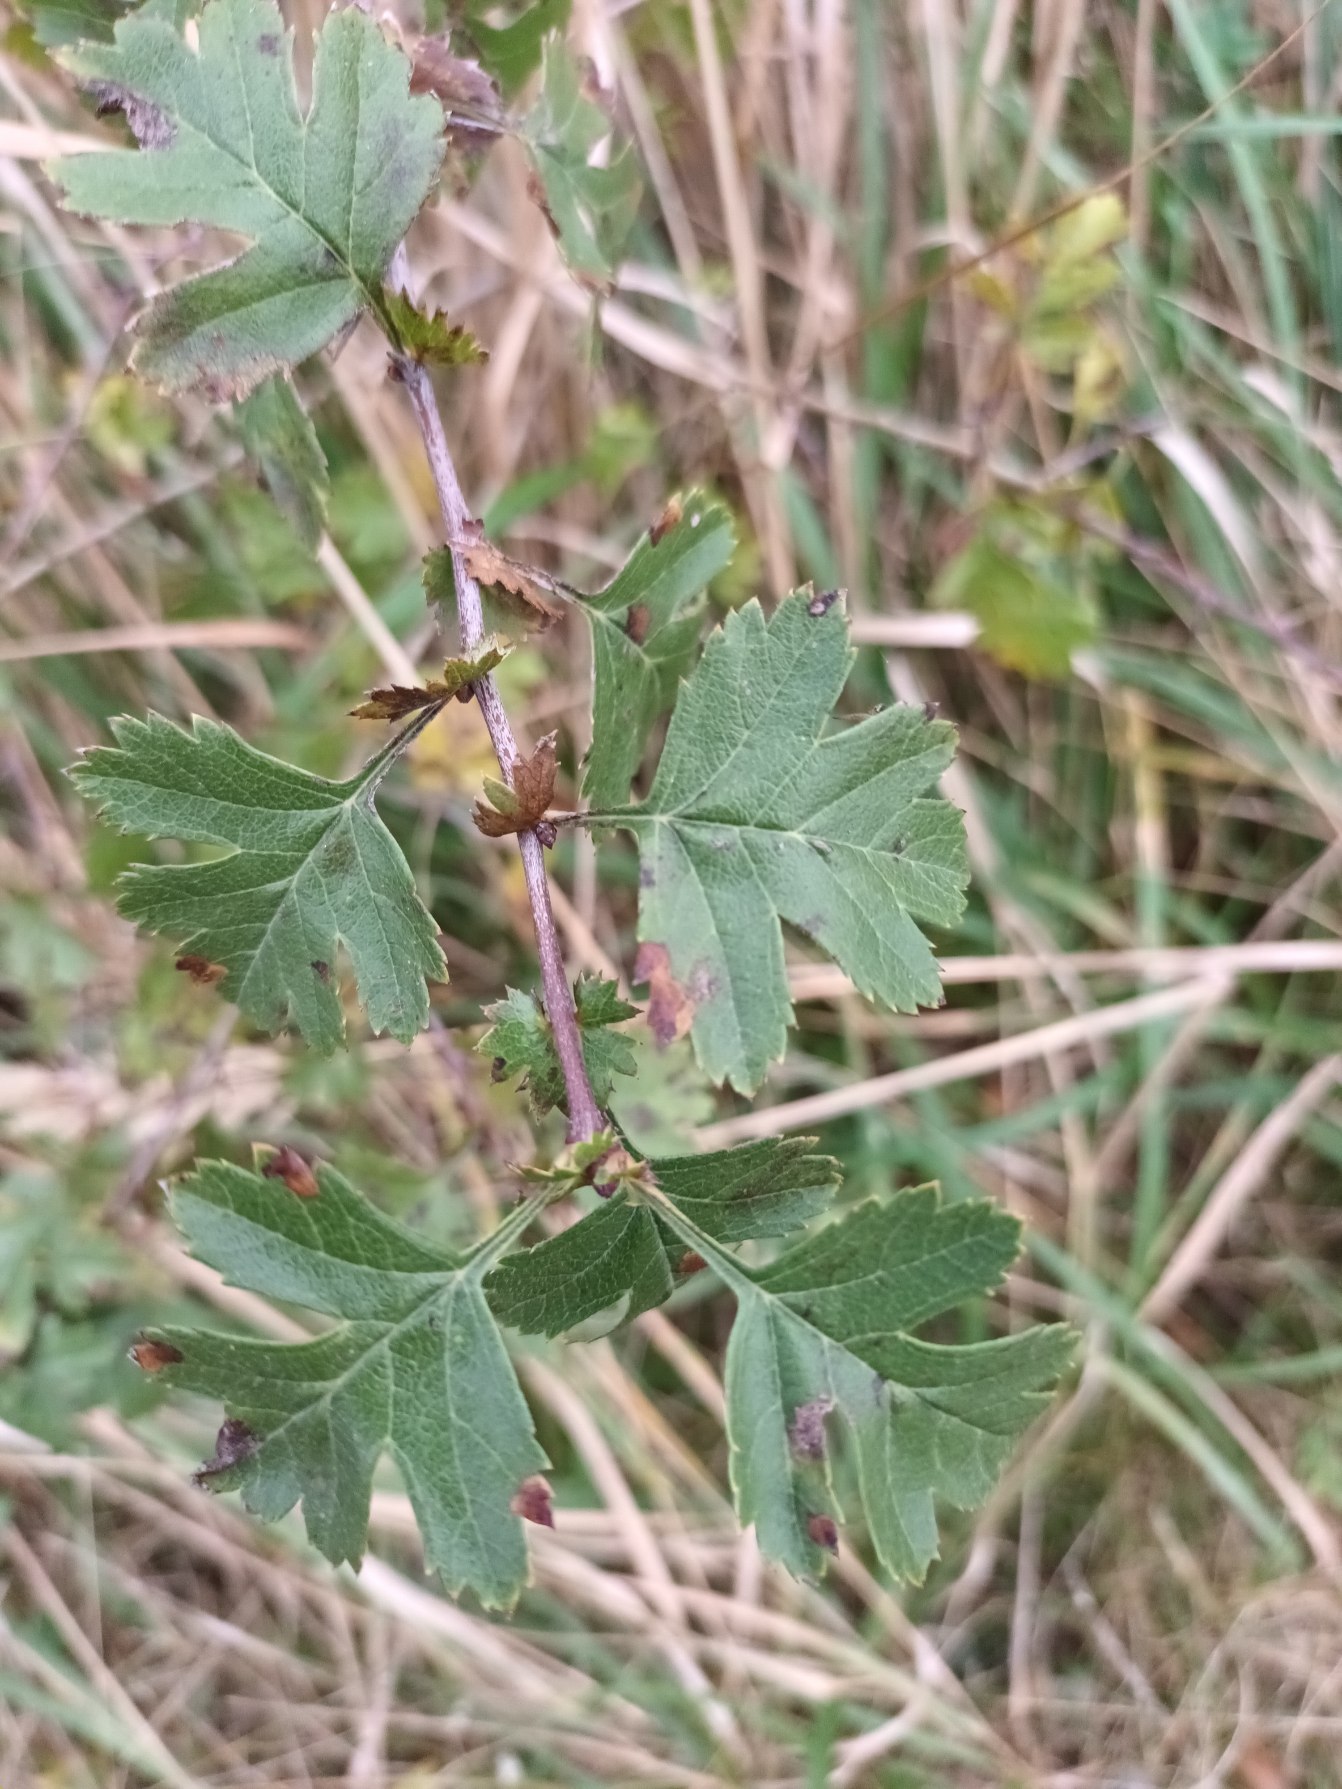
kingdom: Plantae
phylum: Tracheophyta
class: Magnoliopsida
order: Rosales
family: Rosaceae
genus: Crataegus
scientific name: Crataegus monogyna
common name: Engriflet hvidtjørn
